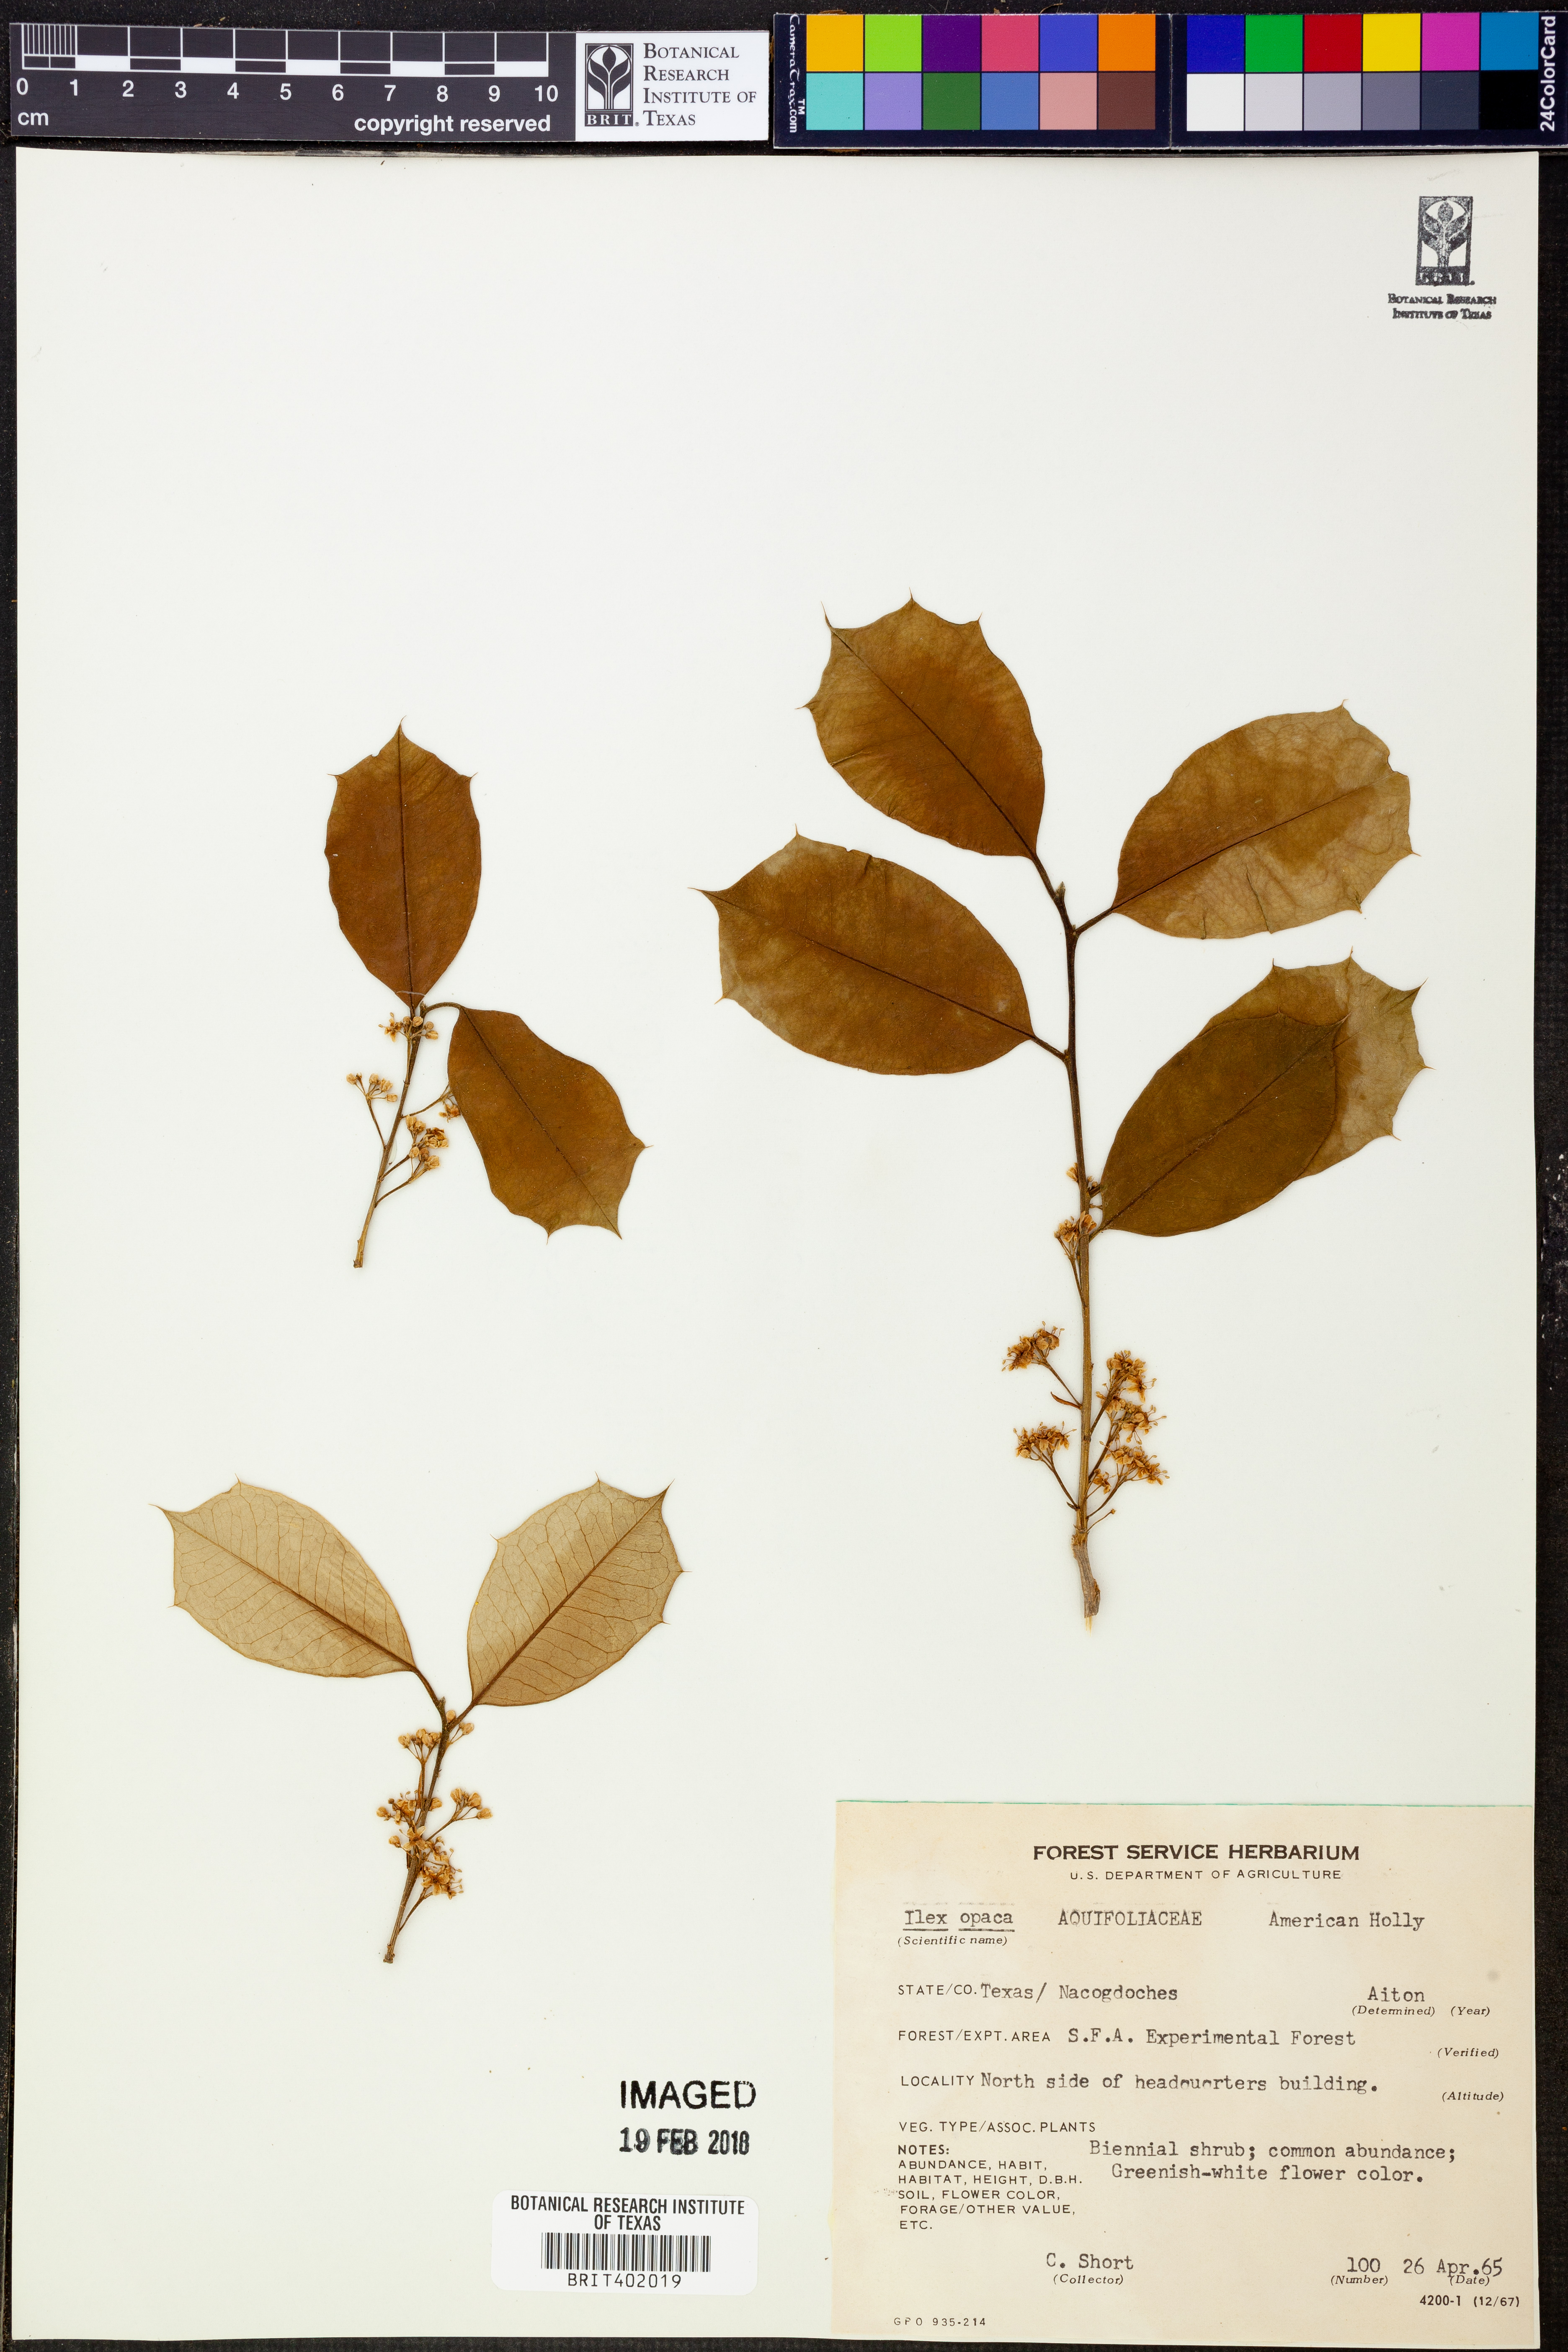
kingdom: Plantae
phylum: Tracheophyta
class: Magnoliopsida
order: Aquifoliales
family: Aquifoliaceae
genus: Ilex
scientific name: Ilex opaca
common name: American holly
